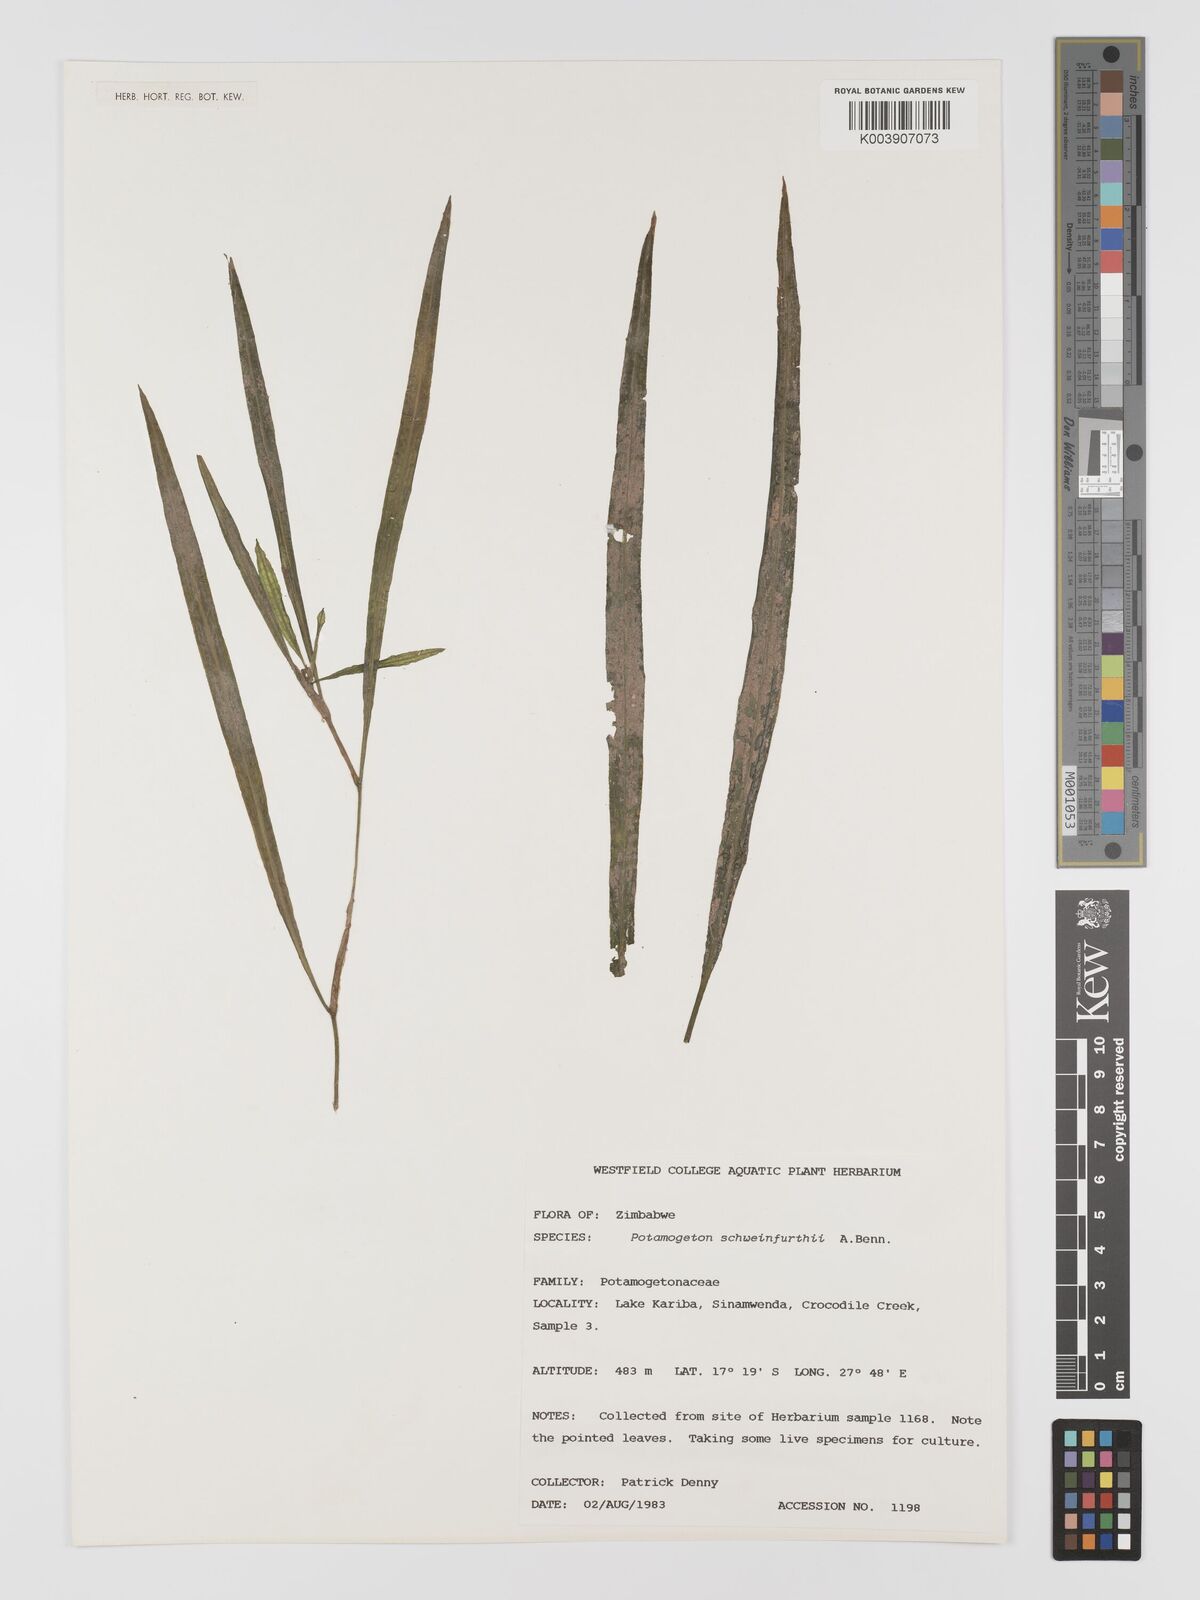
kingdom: Plantae
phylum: Tracheophyta
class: Liliopsida
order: Alismatales
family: Potamogetonaceae
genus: Potamogeton
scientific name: Potamogeton schweinfurthii
